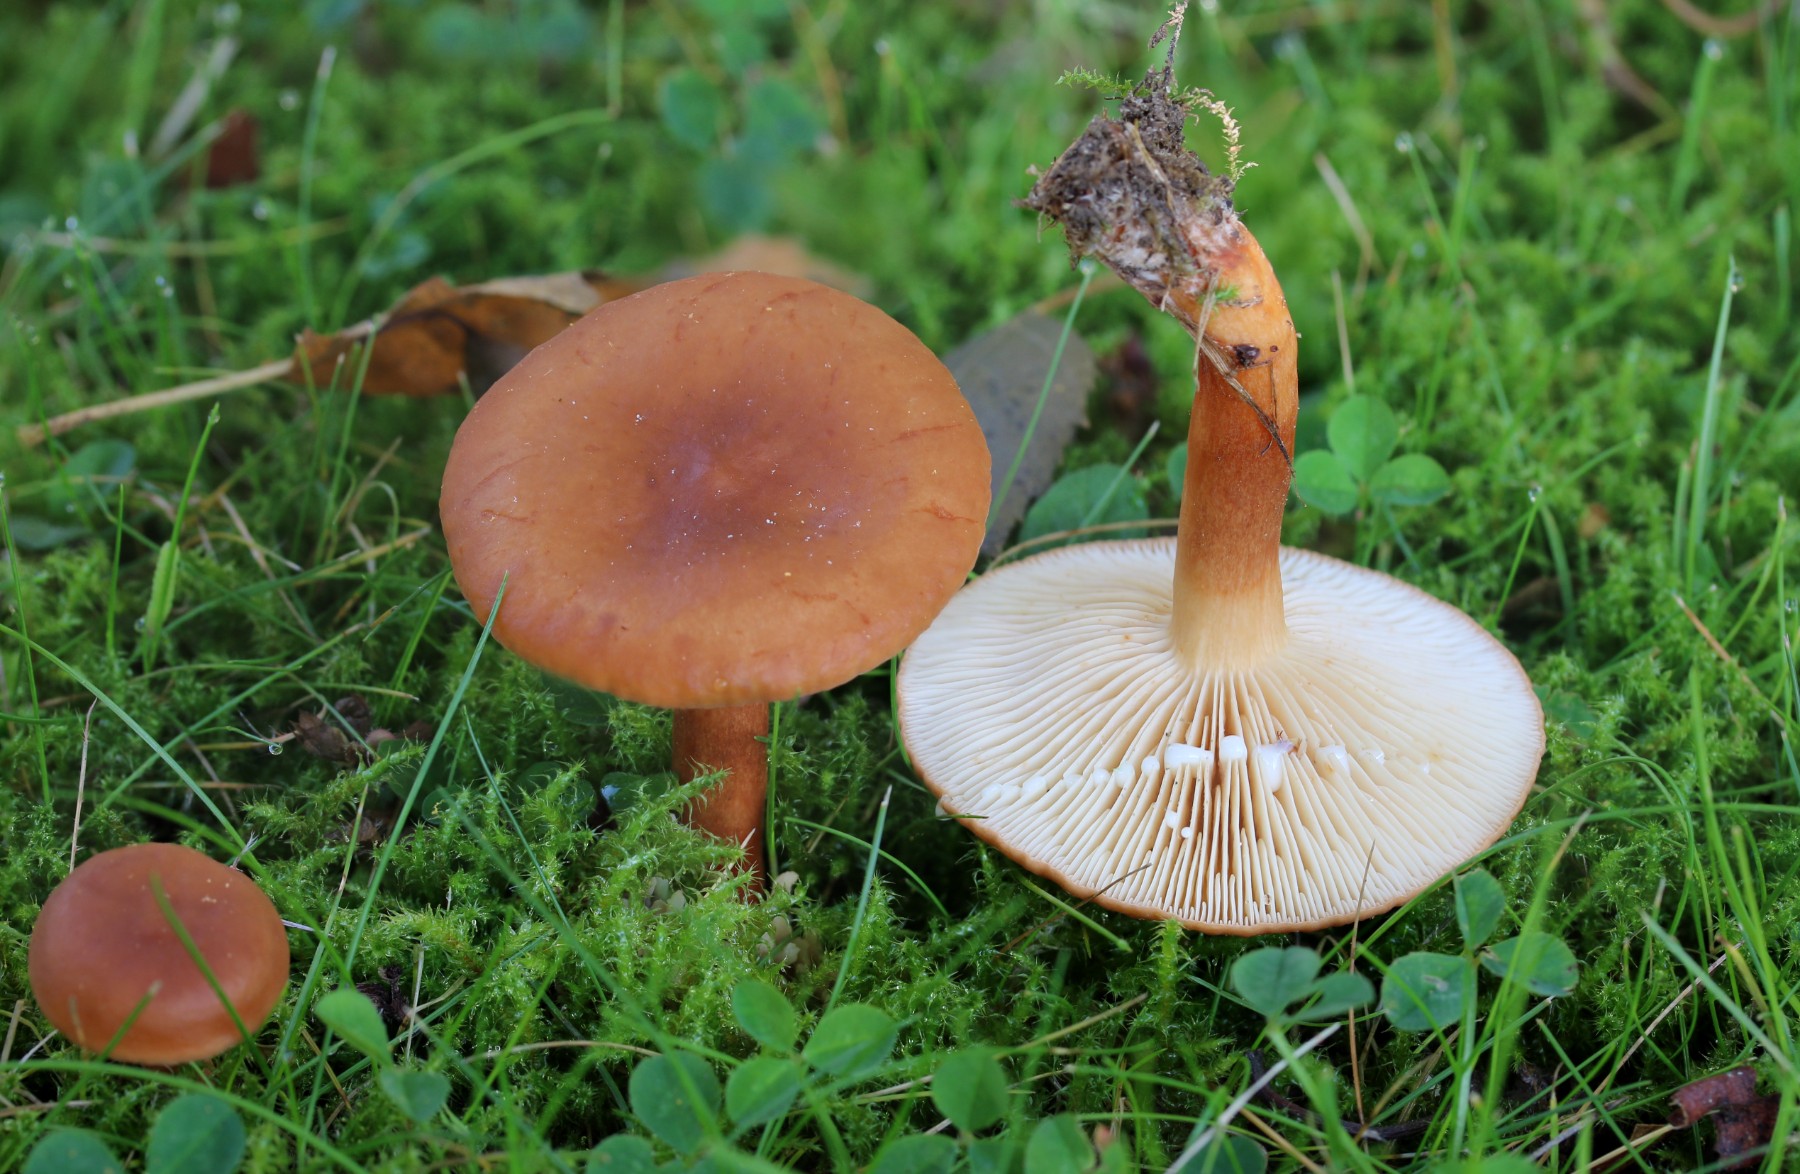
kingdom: Fungi
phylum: Basidiomycota
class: Agaricomycetes
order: Russulales
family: Russulaceae
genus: Lactarius
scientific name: Lactarius aurantiacus
